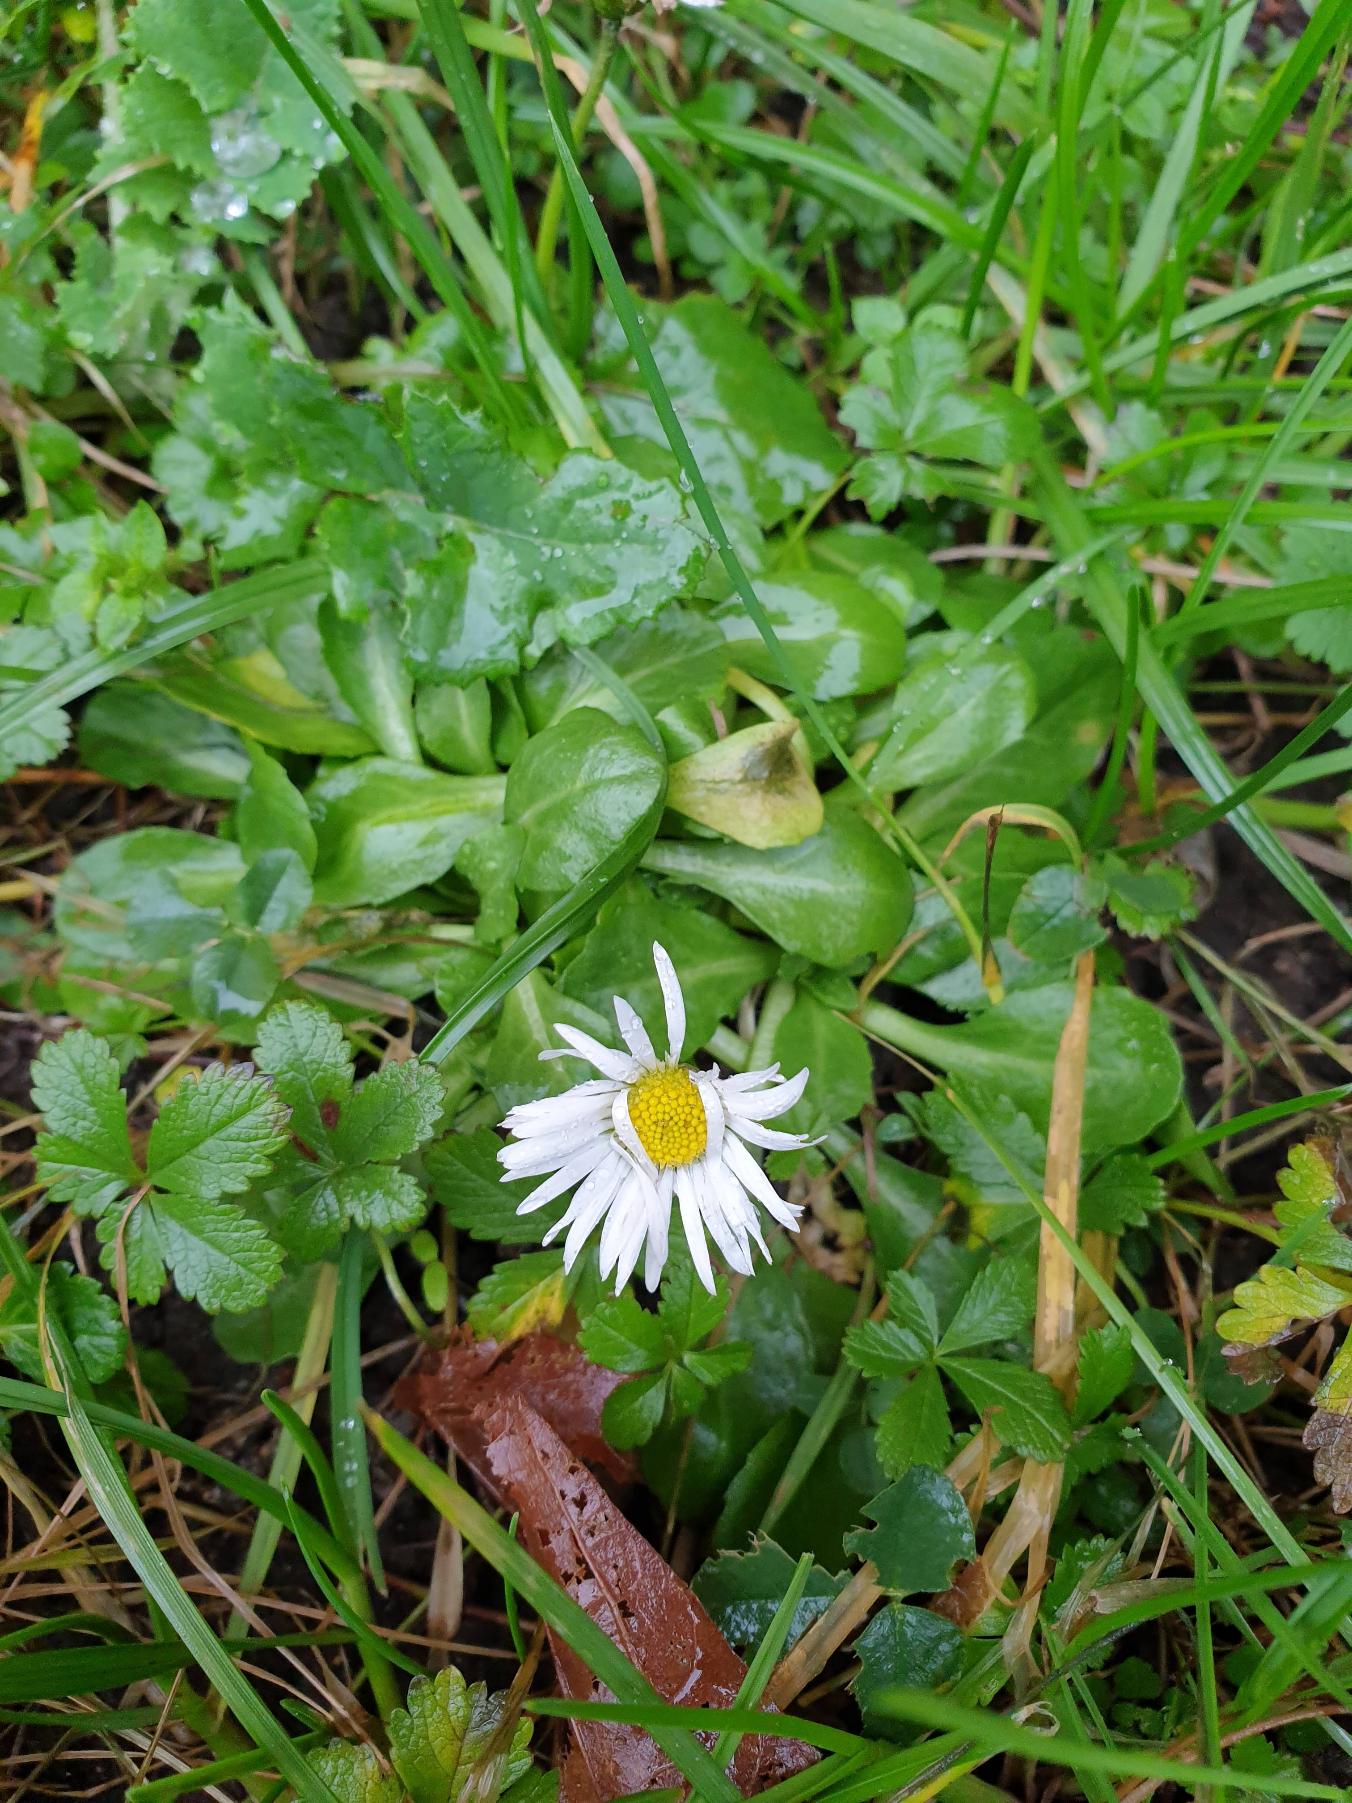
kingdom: Plantae
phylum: Tracheophyta
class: Magnoliopsida
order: Asterales
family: Asteraceae
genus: Bellis
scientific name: Bellis perennis
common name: Tusindfryd
